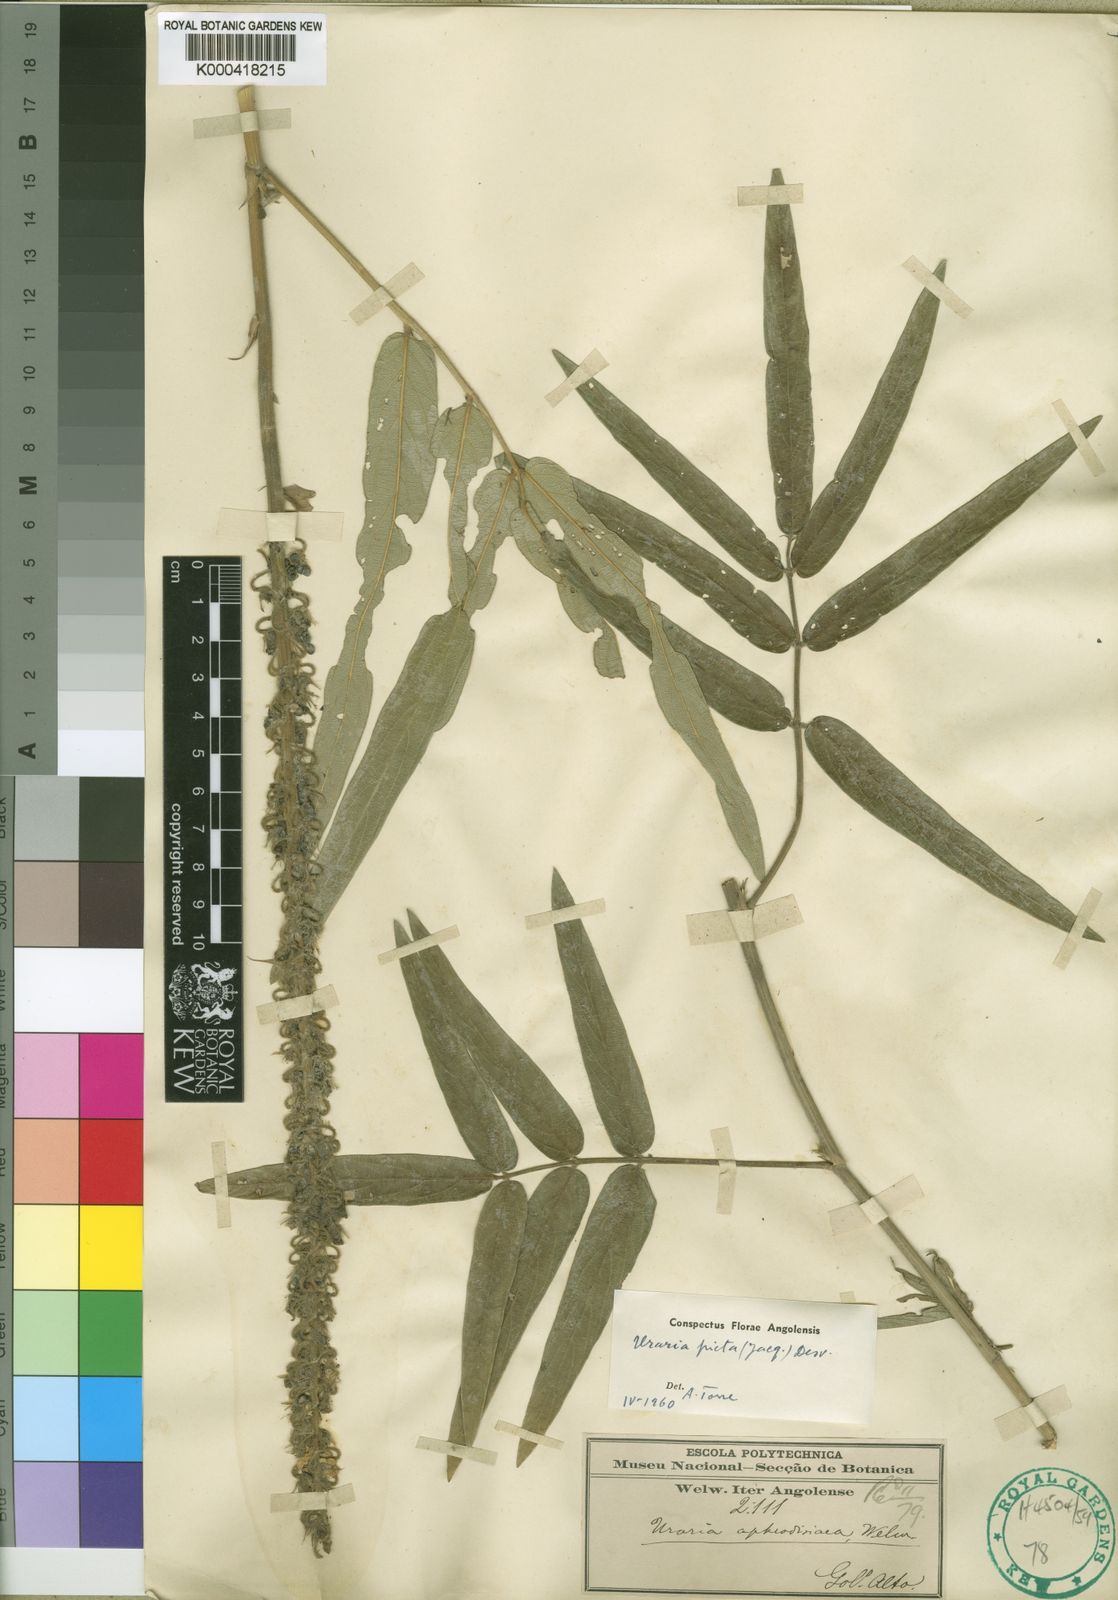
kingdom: Plantae
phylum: Tracheophyta
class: Magnoliopsida
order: Fabales
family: Fabaceae
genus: Uraria
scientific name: Uraria
